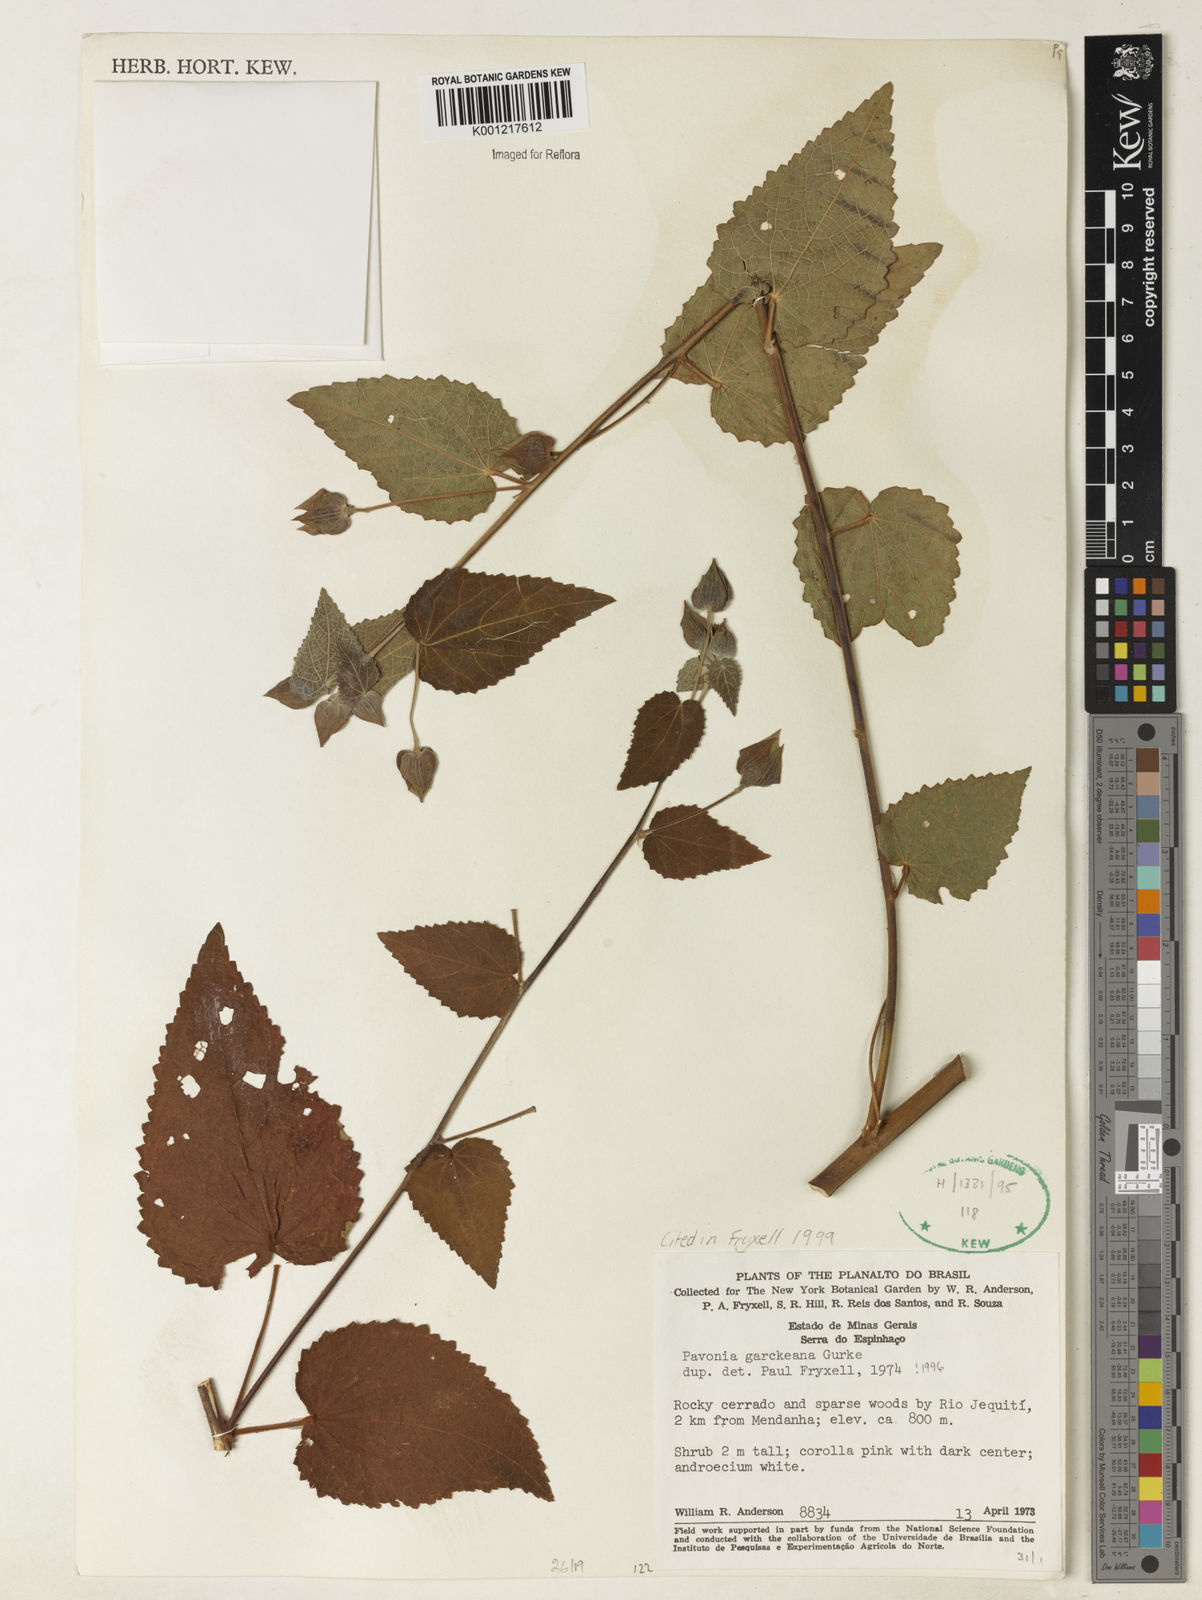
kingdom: Plantae
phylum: Tracheophyta
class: Magnoliopsida
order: Malvales
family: Malvaceae
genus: Pavonia
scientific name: Pavonia
